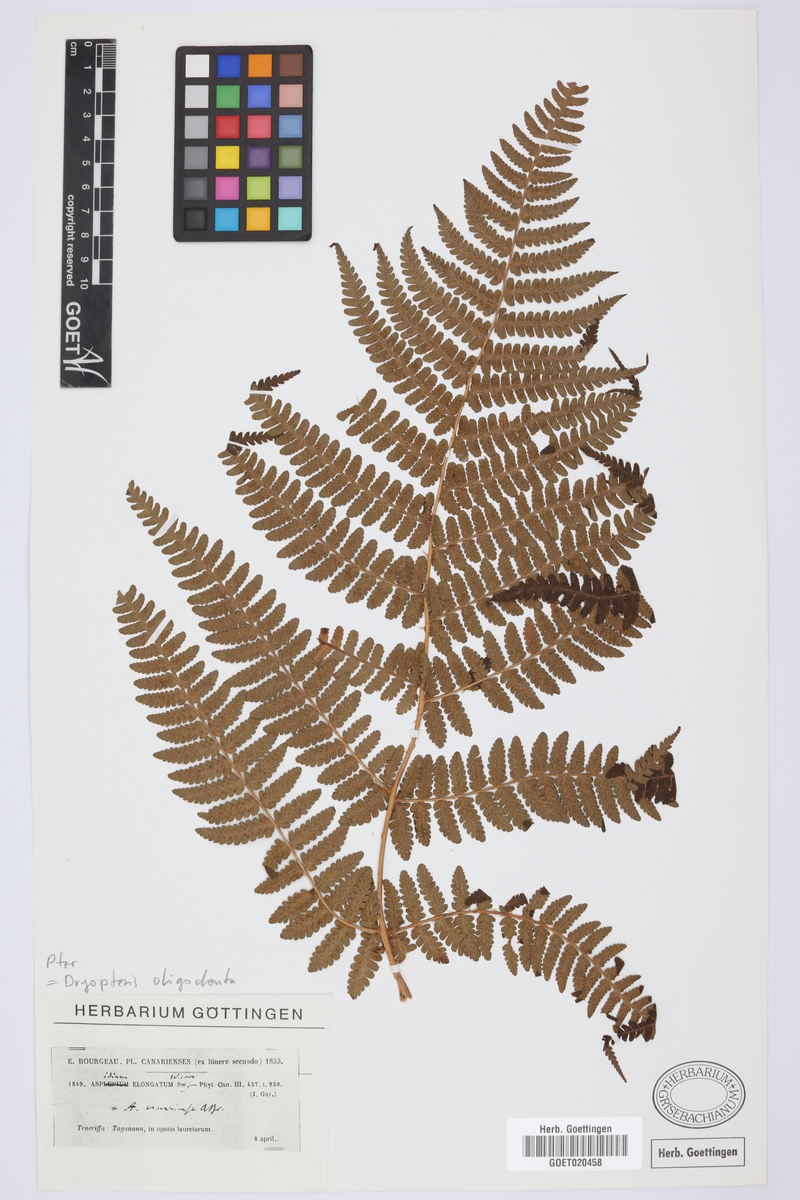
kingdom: Plantae
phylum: Tracheophyta
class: Polypodiopsida
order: Polypodiales
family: Dryopteridaceae
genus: Dryopteris
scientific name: Dryopteris oligodonta
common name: Canarian male-fern
